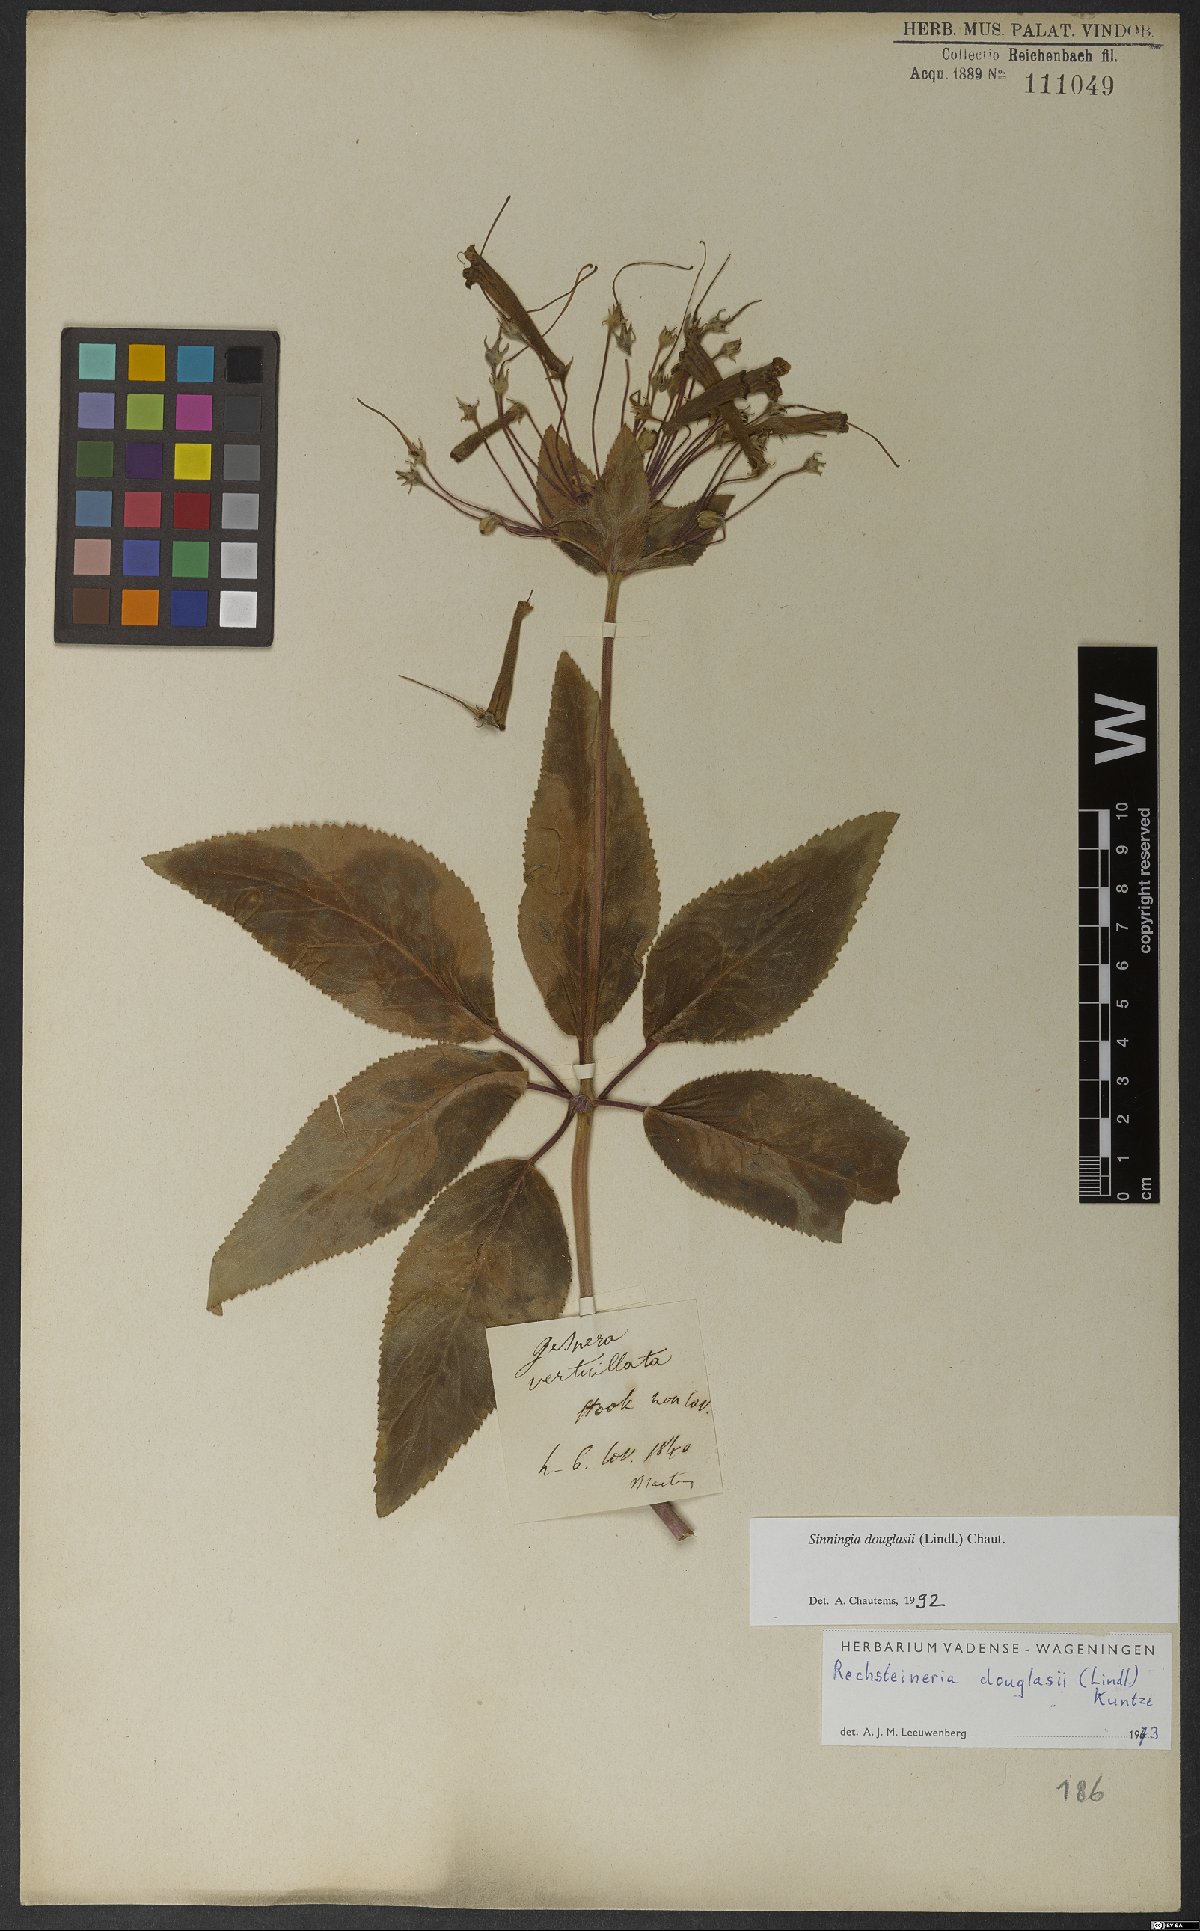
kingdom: Plantae
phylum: Tracheophyta
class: Magnoliopsida
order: Lamiales
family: Gesneriaceae
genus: Sinningia
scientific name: Sinningia douglasii
